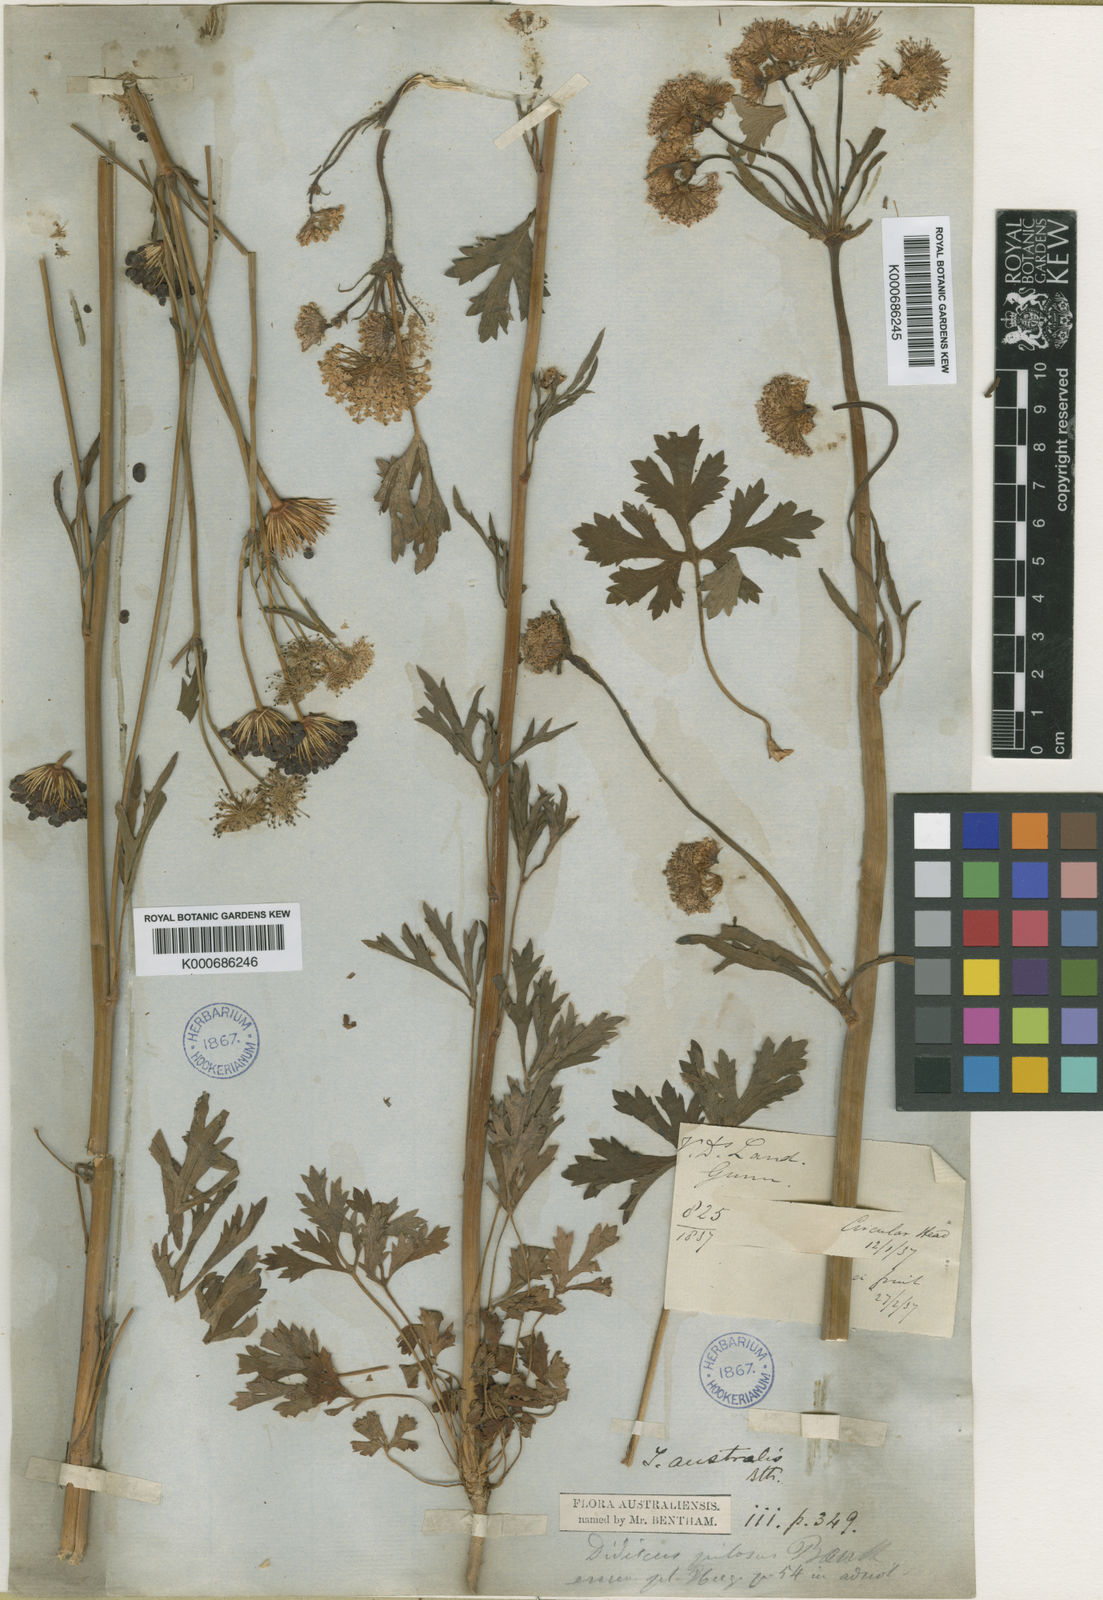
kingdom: Plantae
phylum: Tracheophyta
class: Magnoliopsida
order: Apiales
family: Araliaceae
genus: Trachymene
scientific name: Trachymene composita
